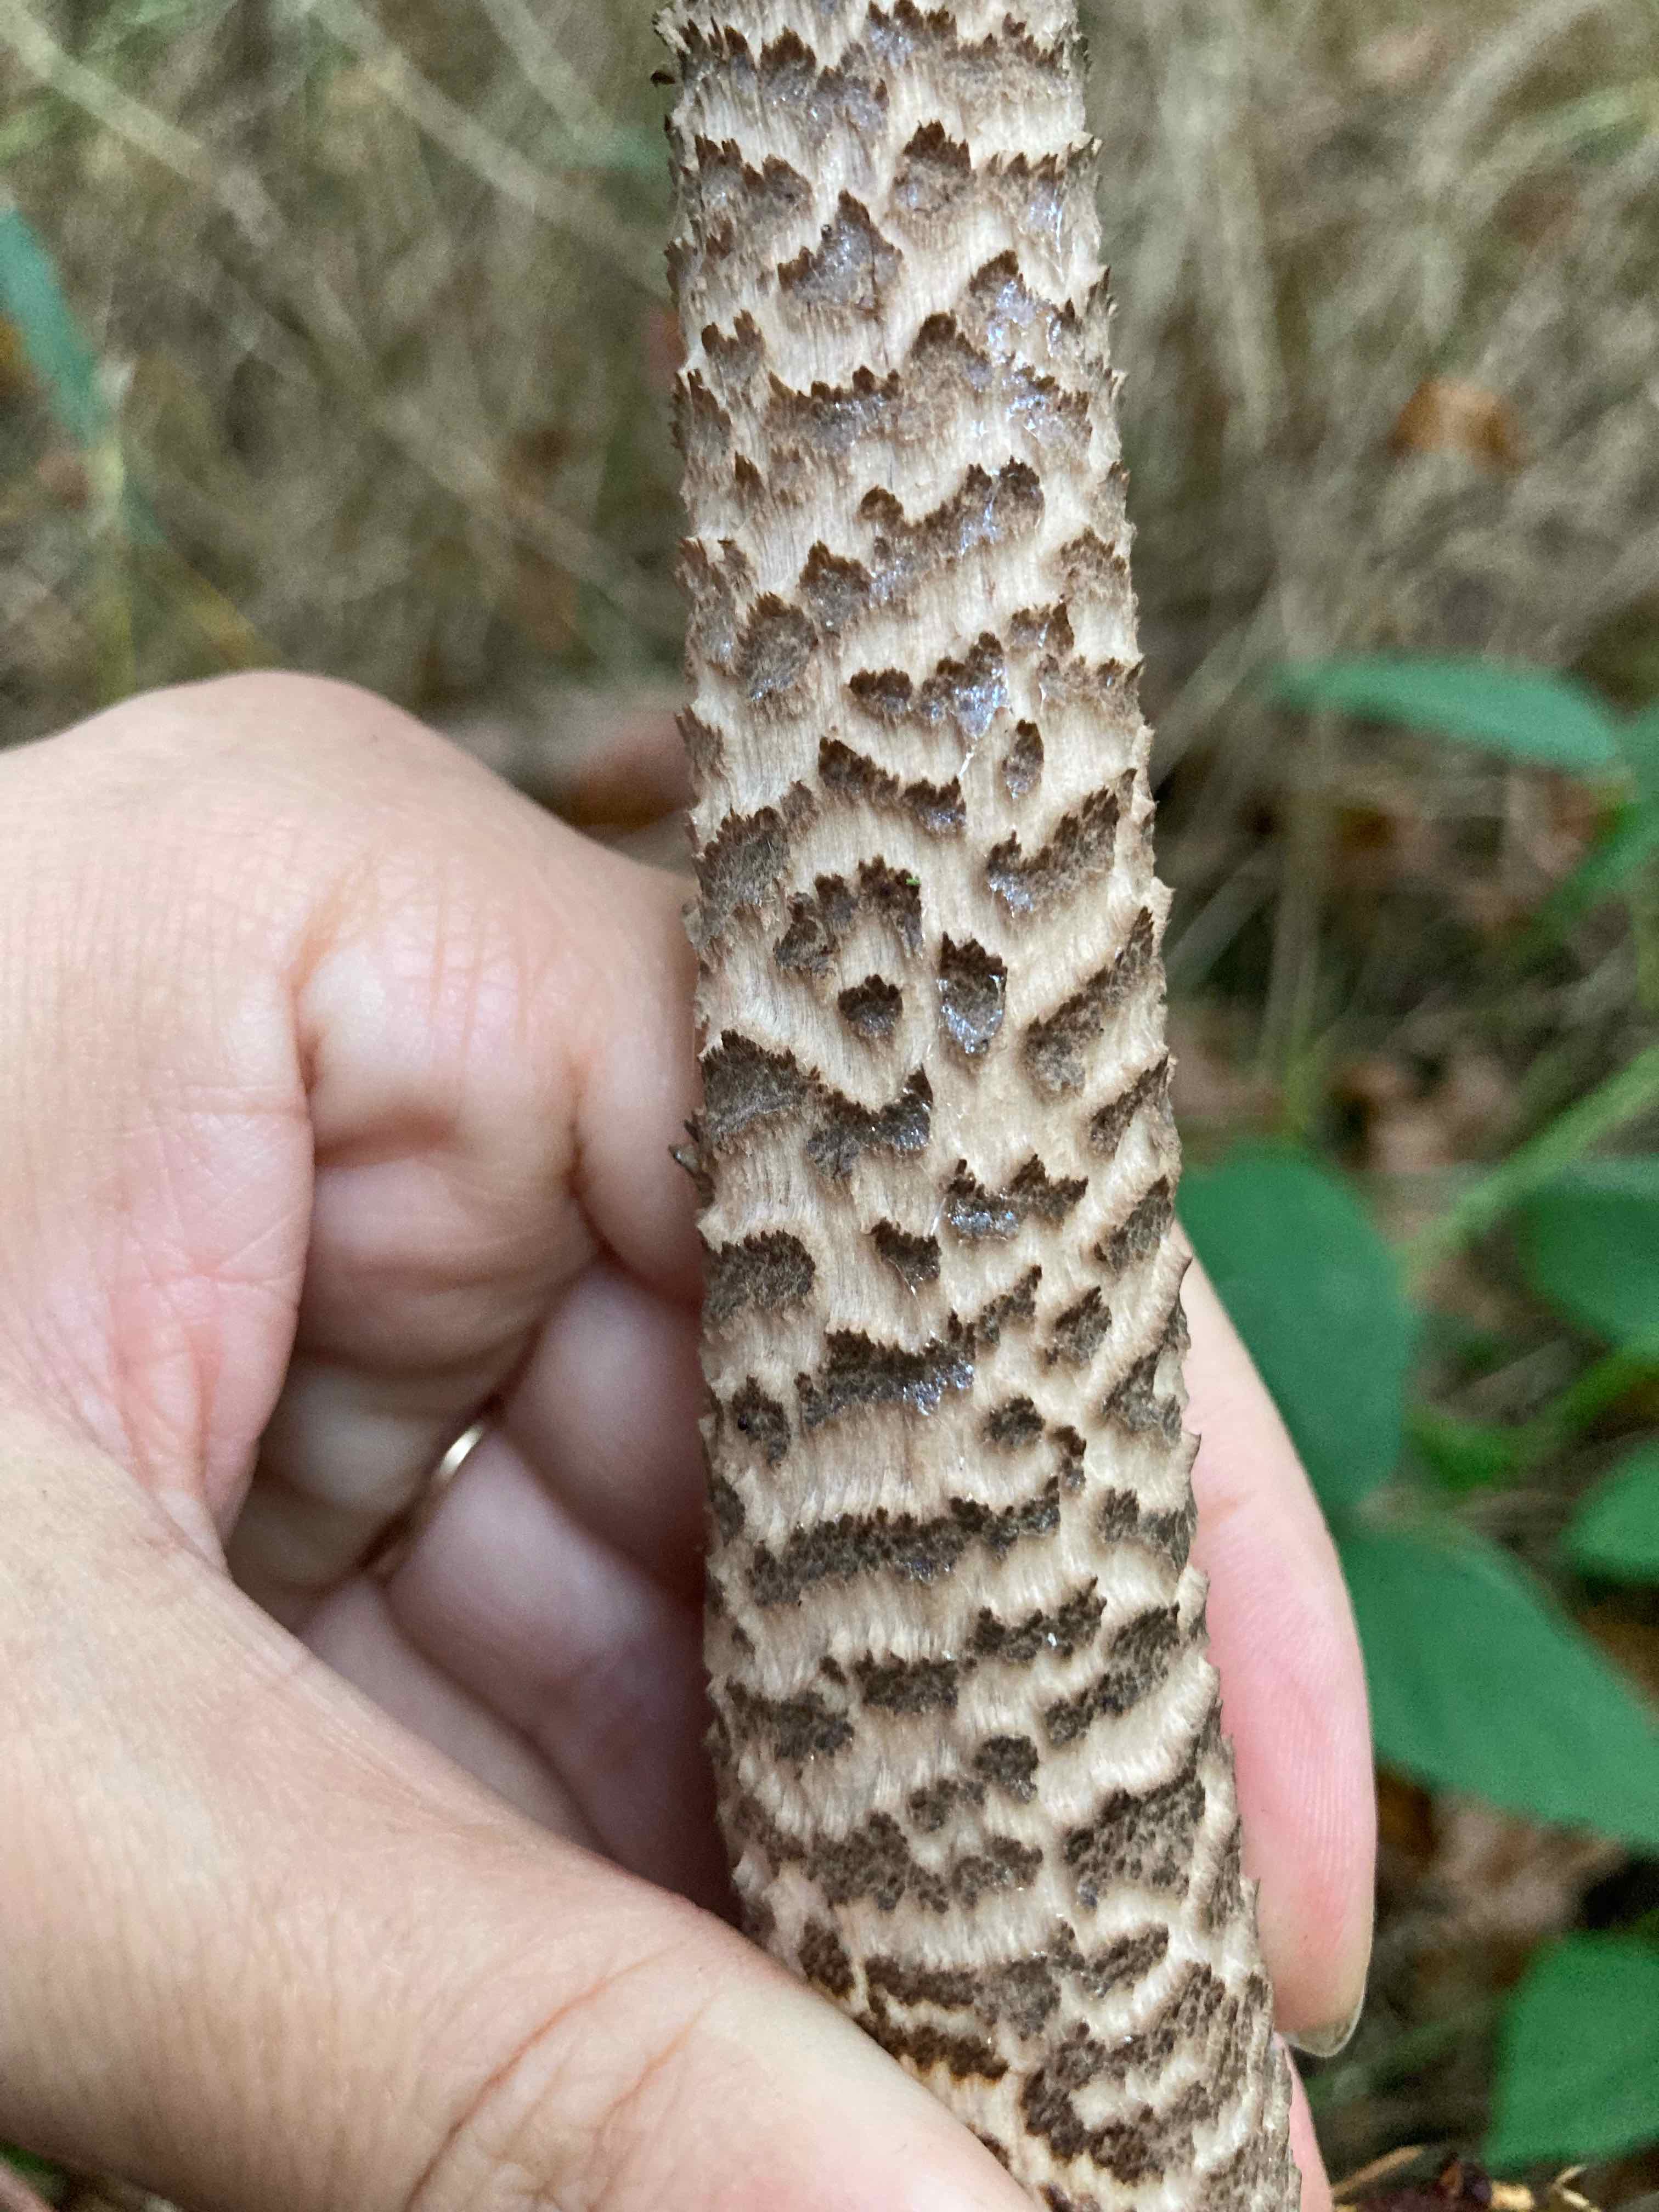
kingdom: Fungi
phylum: Basidiomycota
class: Agaricomycetes
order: Agaricales
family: Agaricaceae
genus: Macrolepiota
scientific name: Macrolepiota fuliginosa
